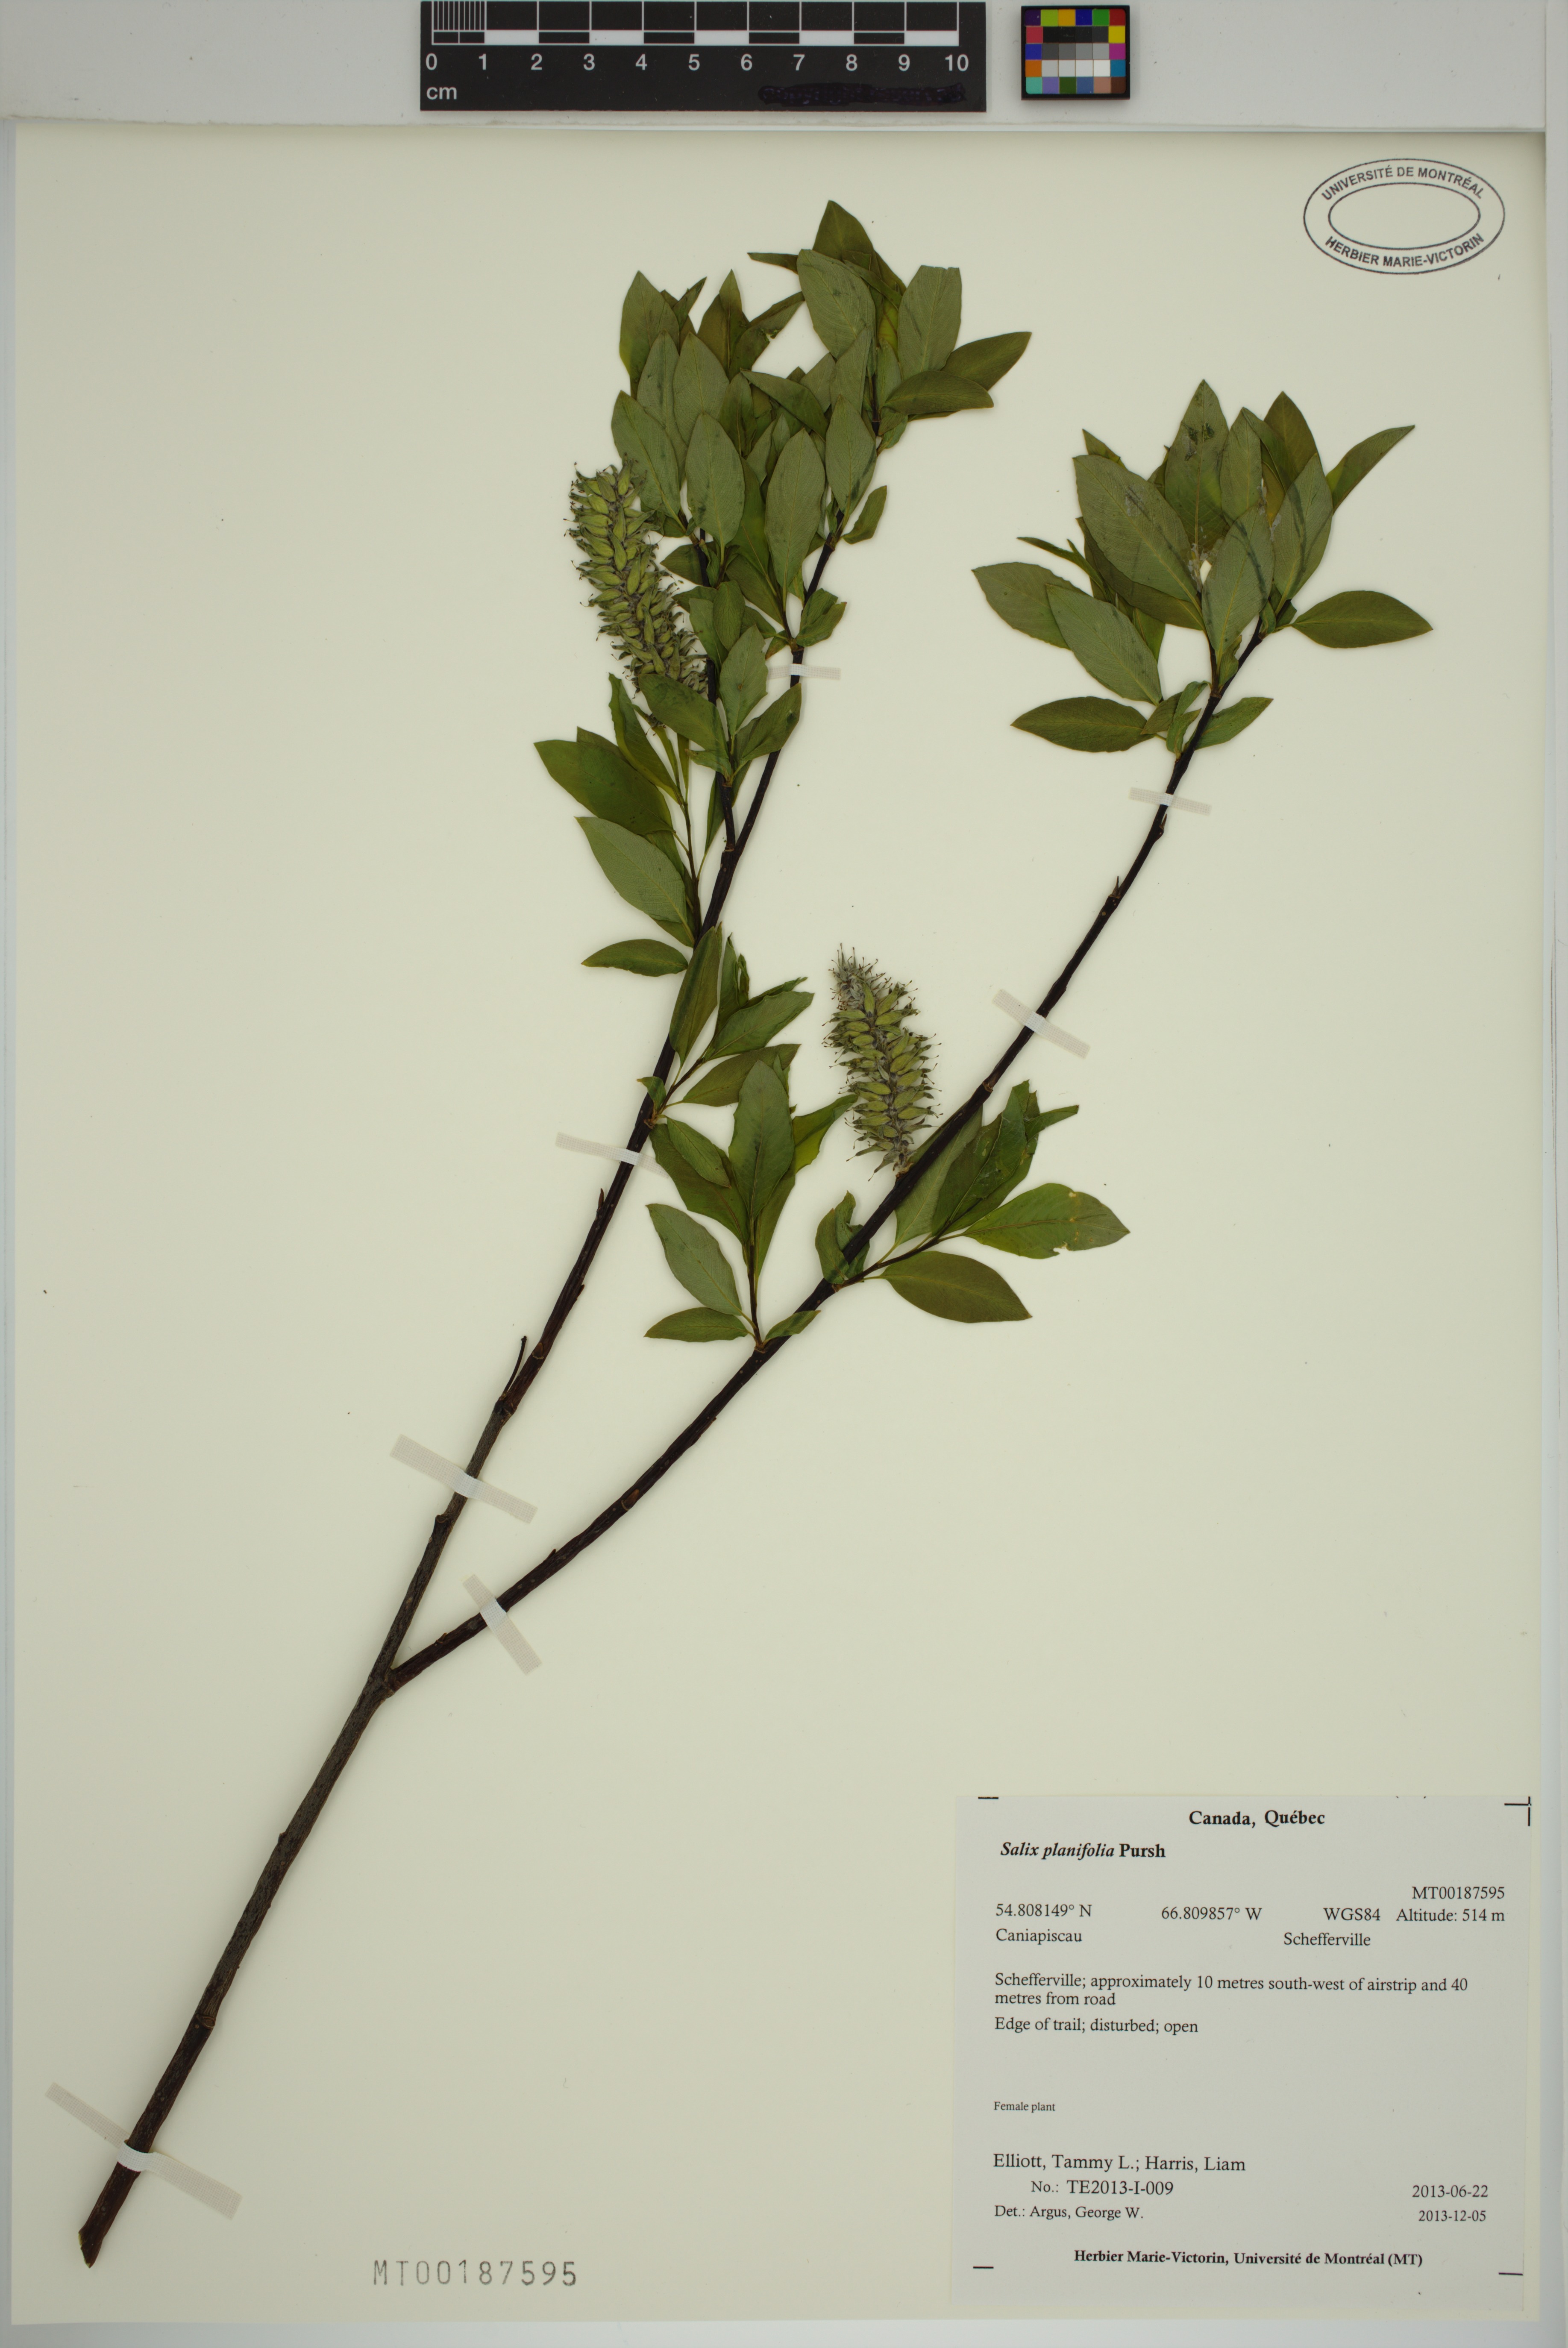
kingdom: Plantae
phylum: Tracheophyta
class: Magnoliopsida
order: Malpighiales
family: Salicaceae
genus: Salix
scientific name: Salix planifolia
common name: Mountain willow
